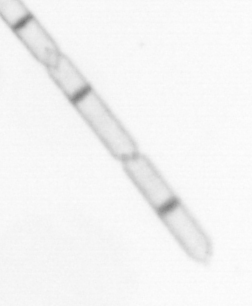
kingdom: Chromista
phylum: Ochrophyta
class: Bacillariophyceae
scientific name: Bacillariophyceae
